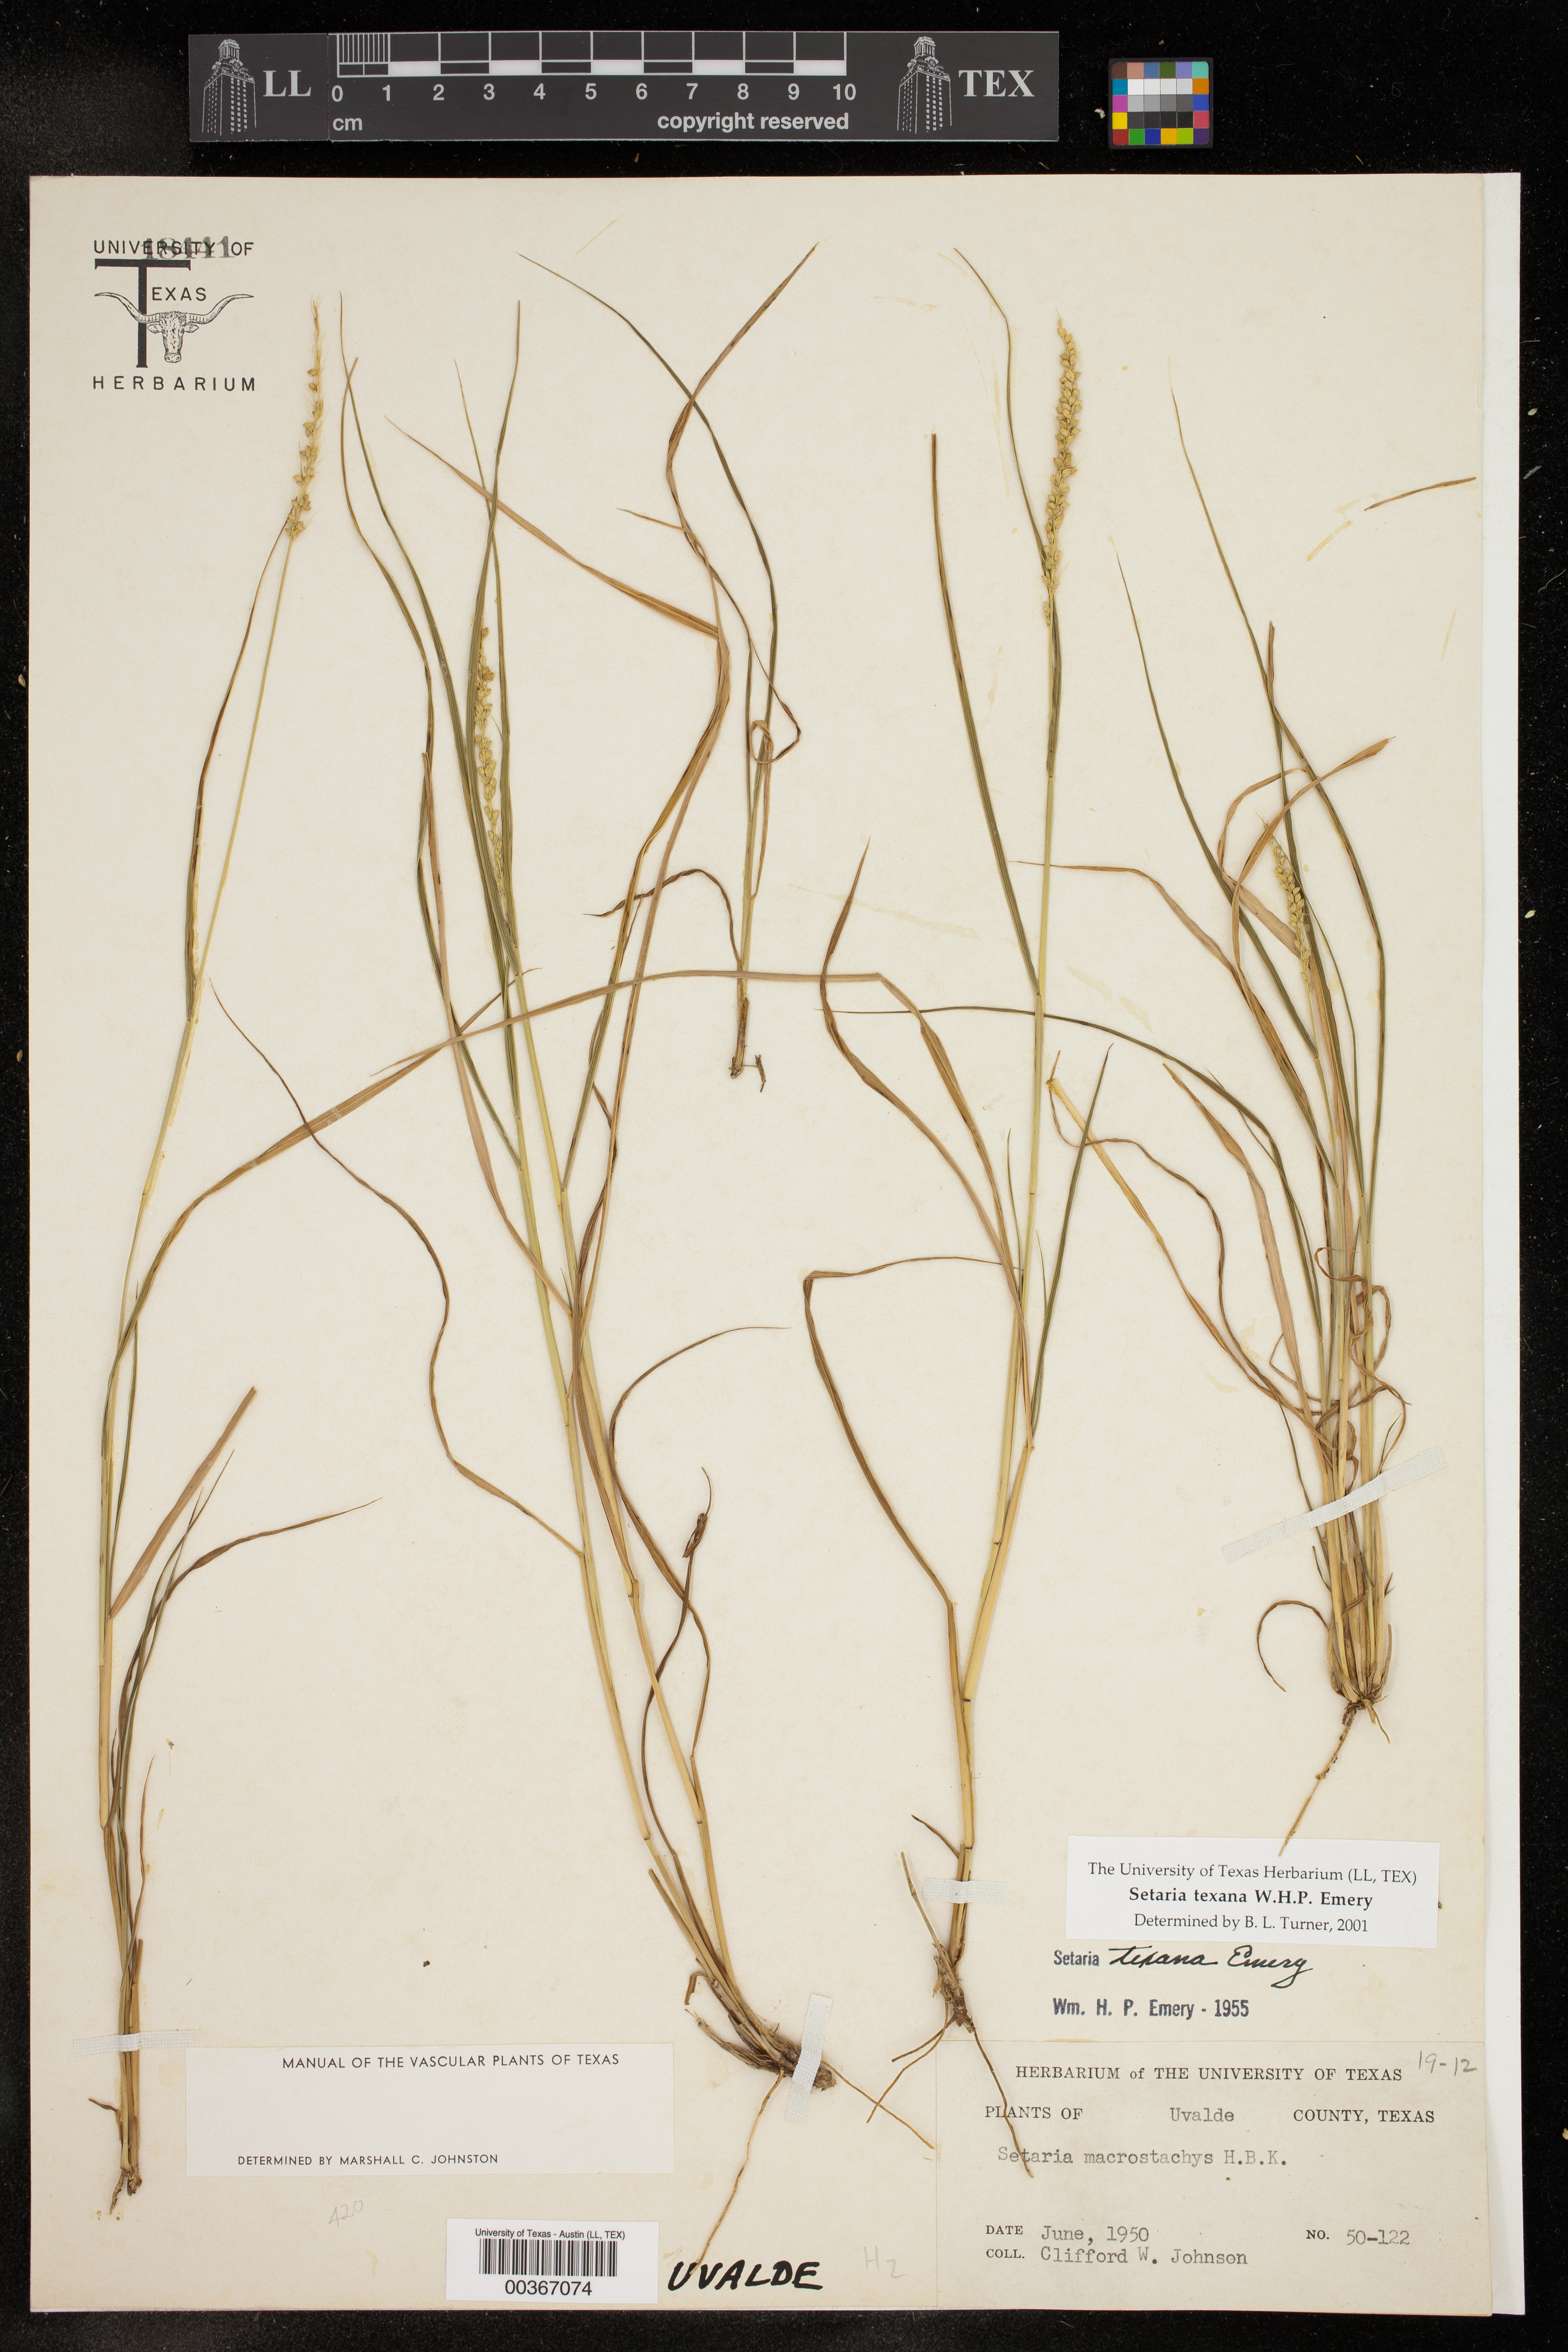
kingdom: Plantae
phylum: Tracheophyta
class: Liliopsida
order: Poales
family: Poaceae
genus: Setaria
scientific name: Setaria texana
